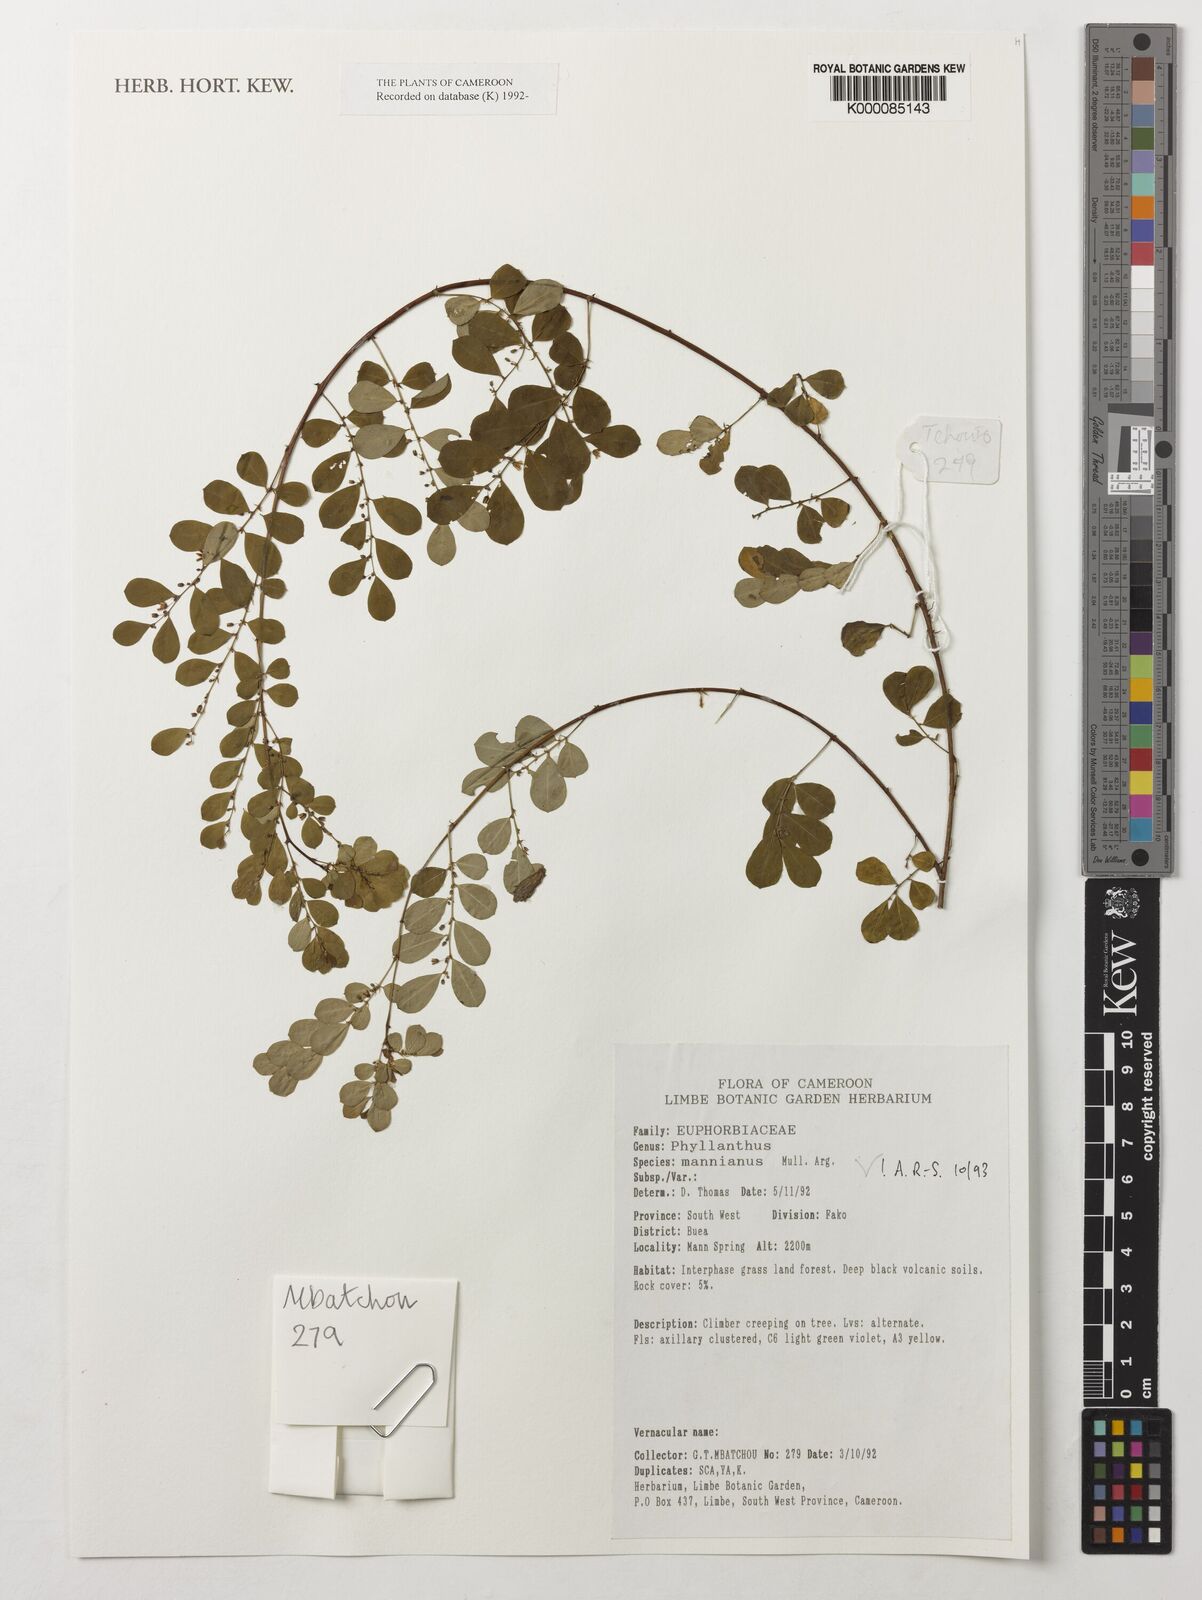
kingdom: Plantae
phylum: Tracheophyta
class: Magnoliopsida
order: Malpighiales
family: Phyllanthaceae
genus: Phyllanthus
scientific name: Phyllanthus
